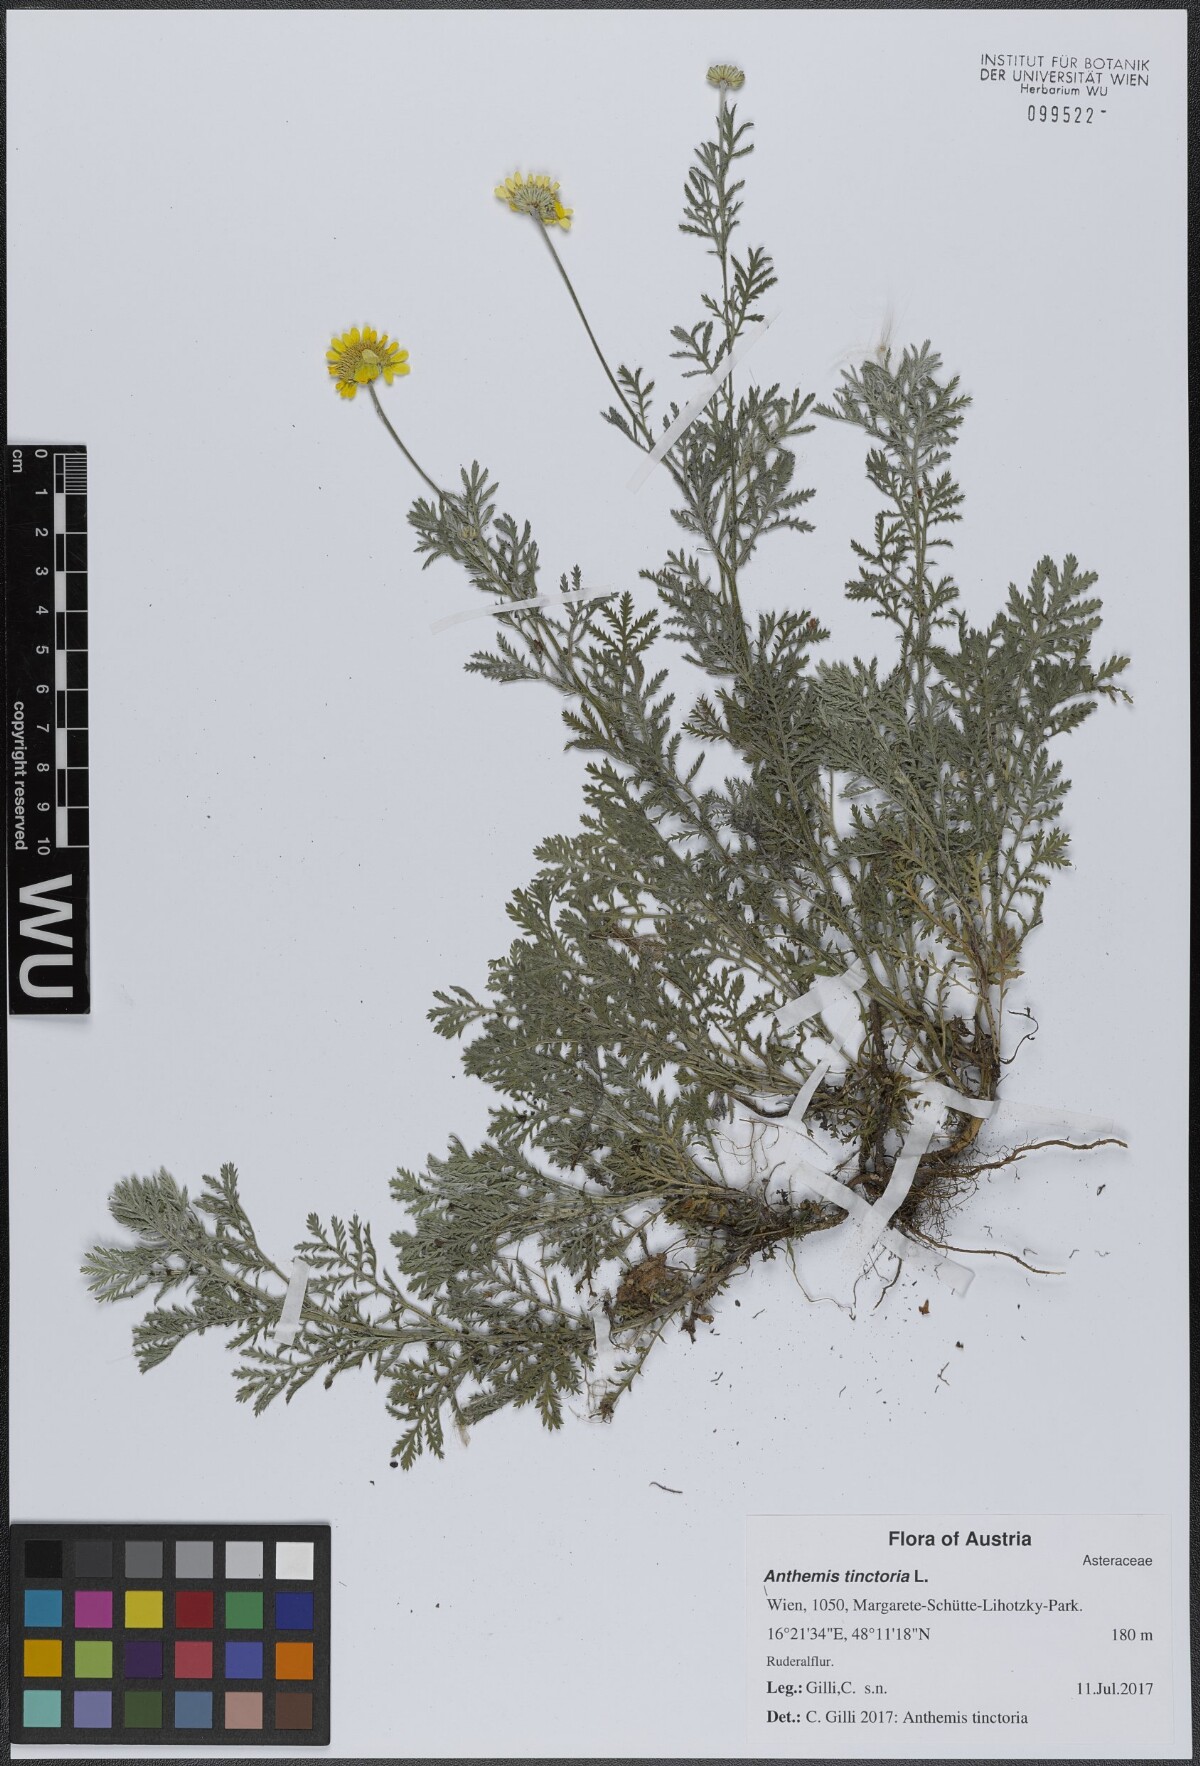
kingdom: Plantae
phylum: Tracheophyta
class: Magnoliopsida
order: Asterales
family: Asteraceae
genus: Cota
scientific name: Cota tinctoria
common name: Golden chamomile
